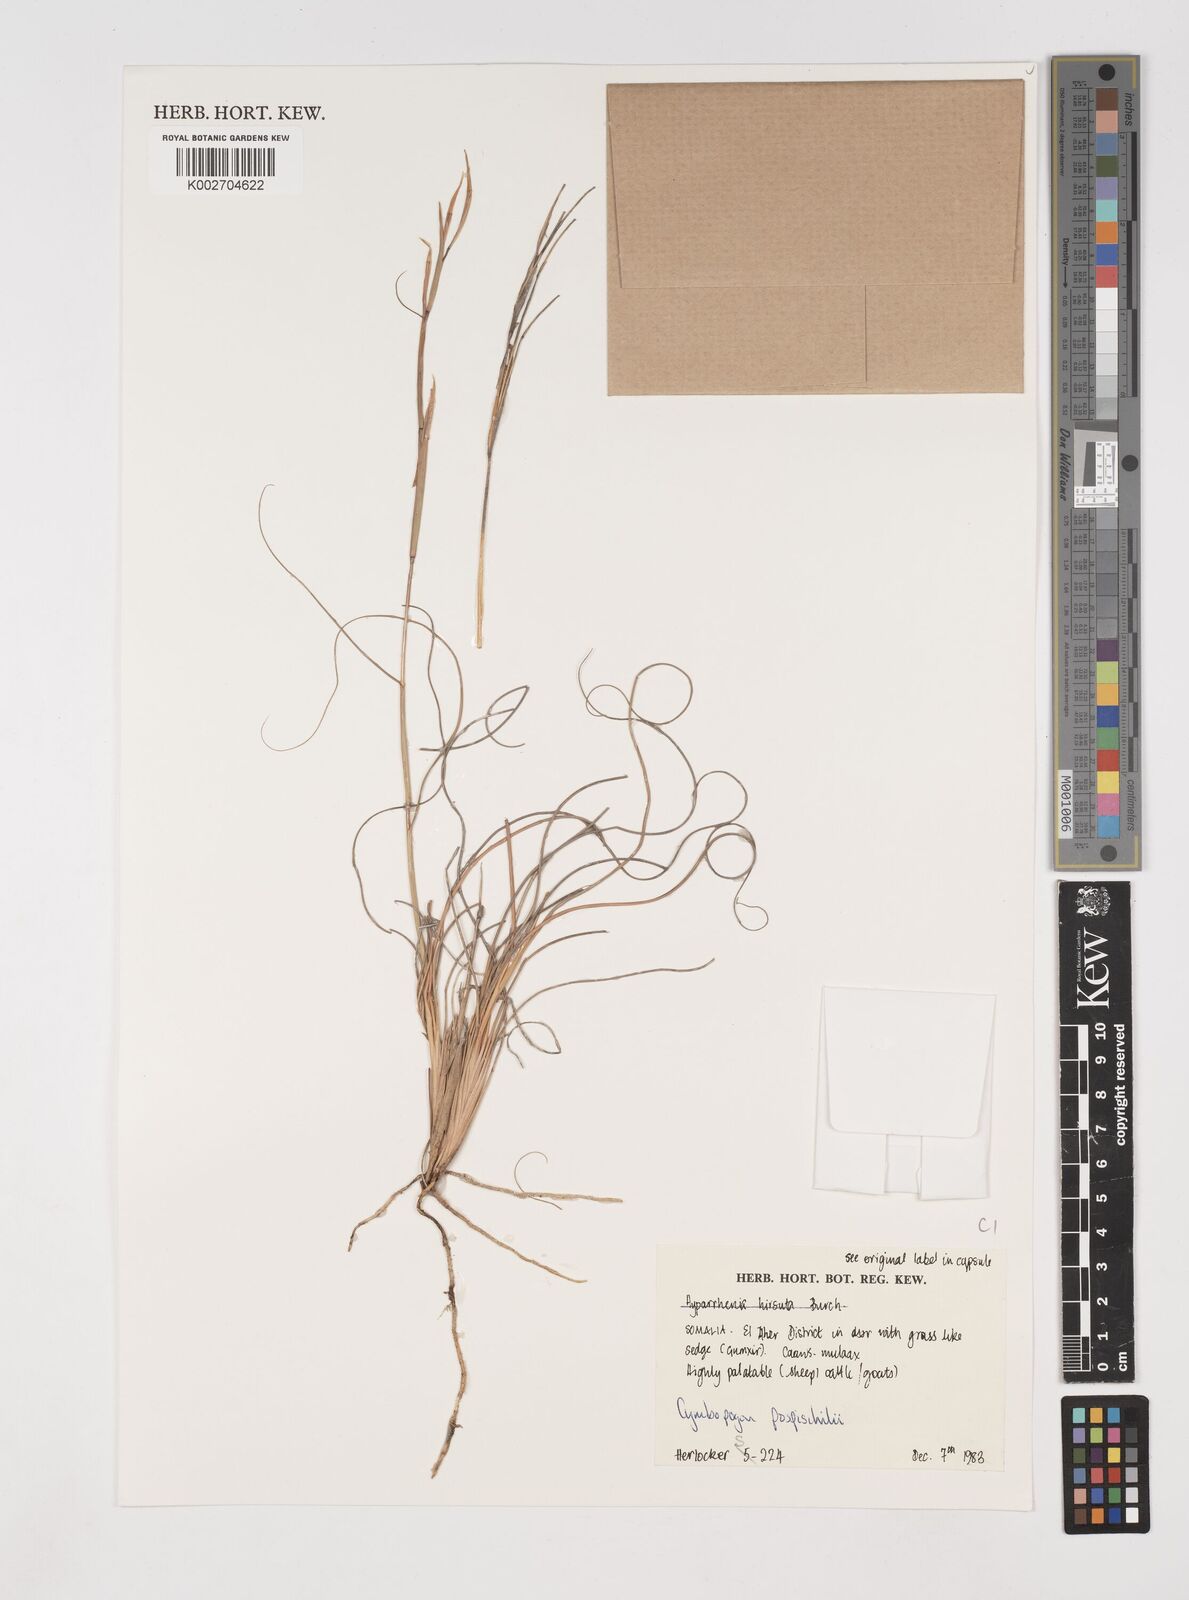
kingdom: Plantae
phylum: Tracheophyta
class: Liliopsida
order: Poales
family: Poaceae
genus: Cymbopogon
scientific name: Cymbopogon pospischilii
